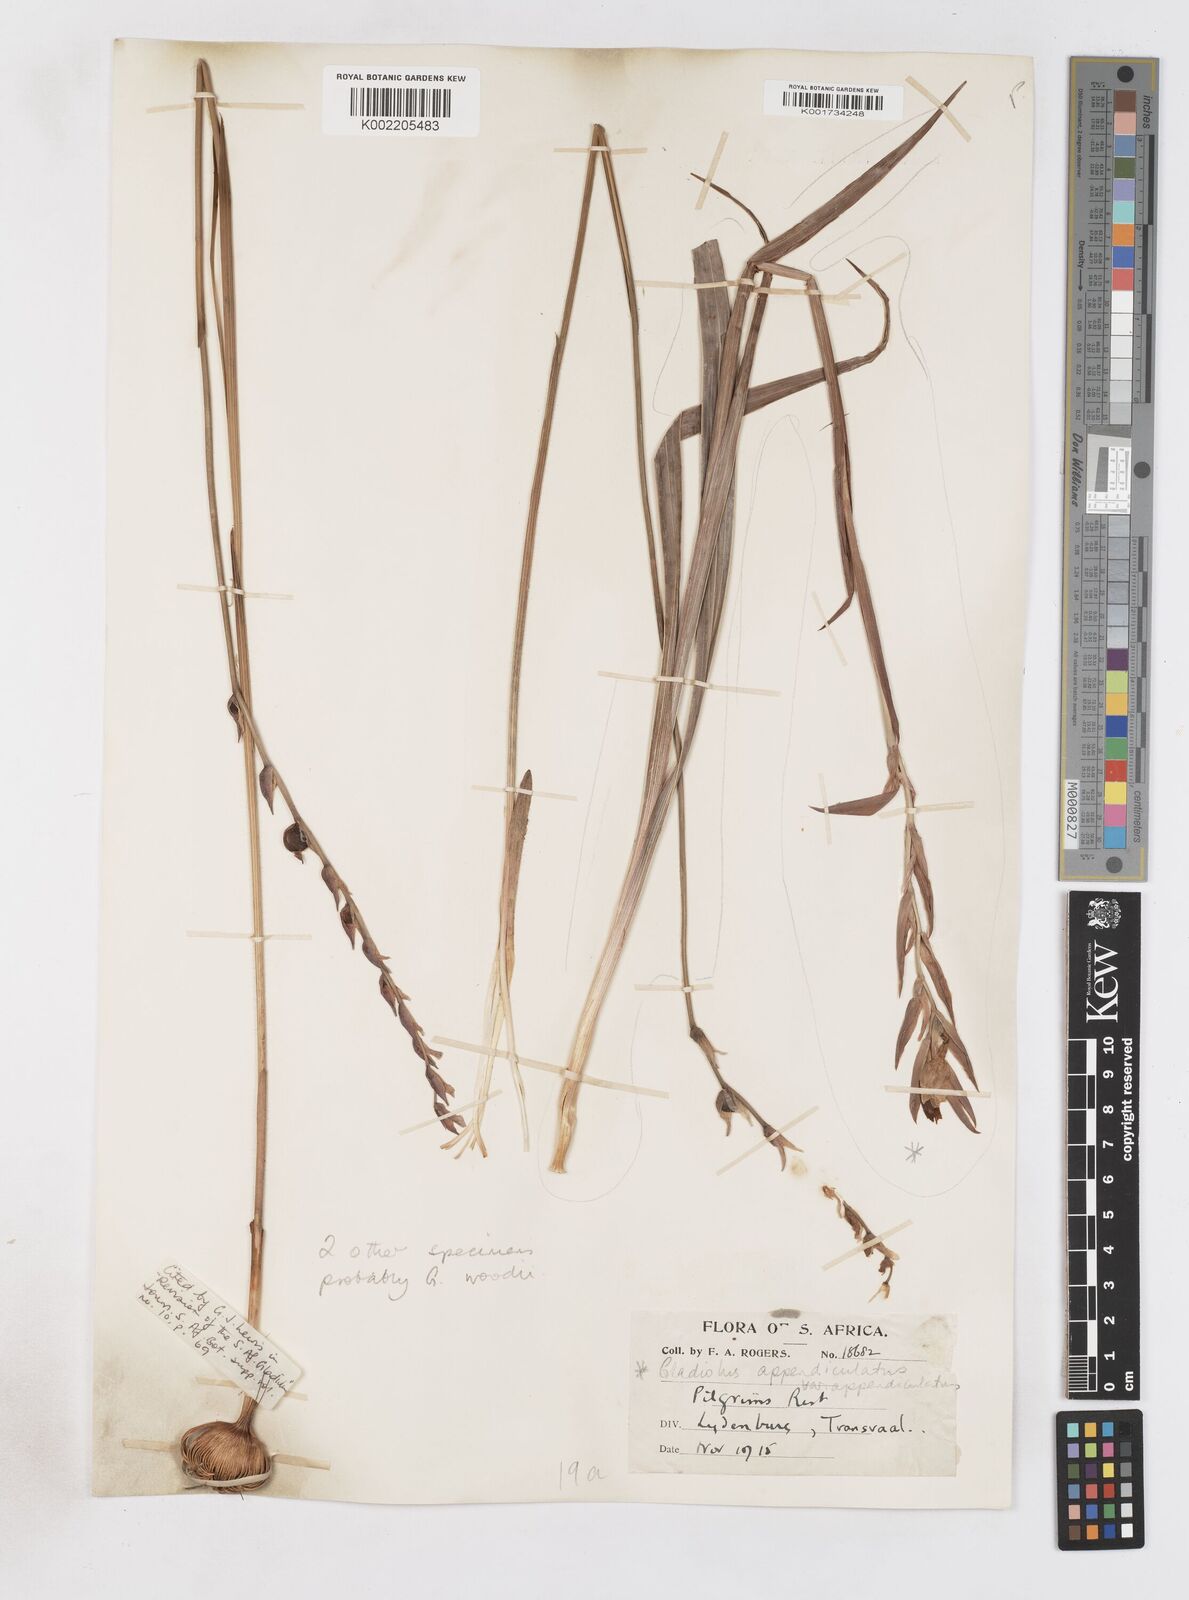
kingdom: Plantae
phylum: Tracheophyta
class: Liliopsida
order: Asparagales
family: Iridaceae
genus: Gladiolus
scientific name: Gladiolus appendiculatus
